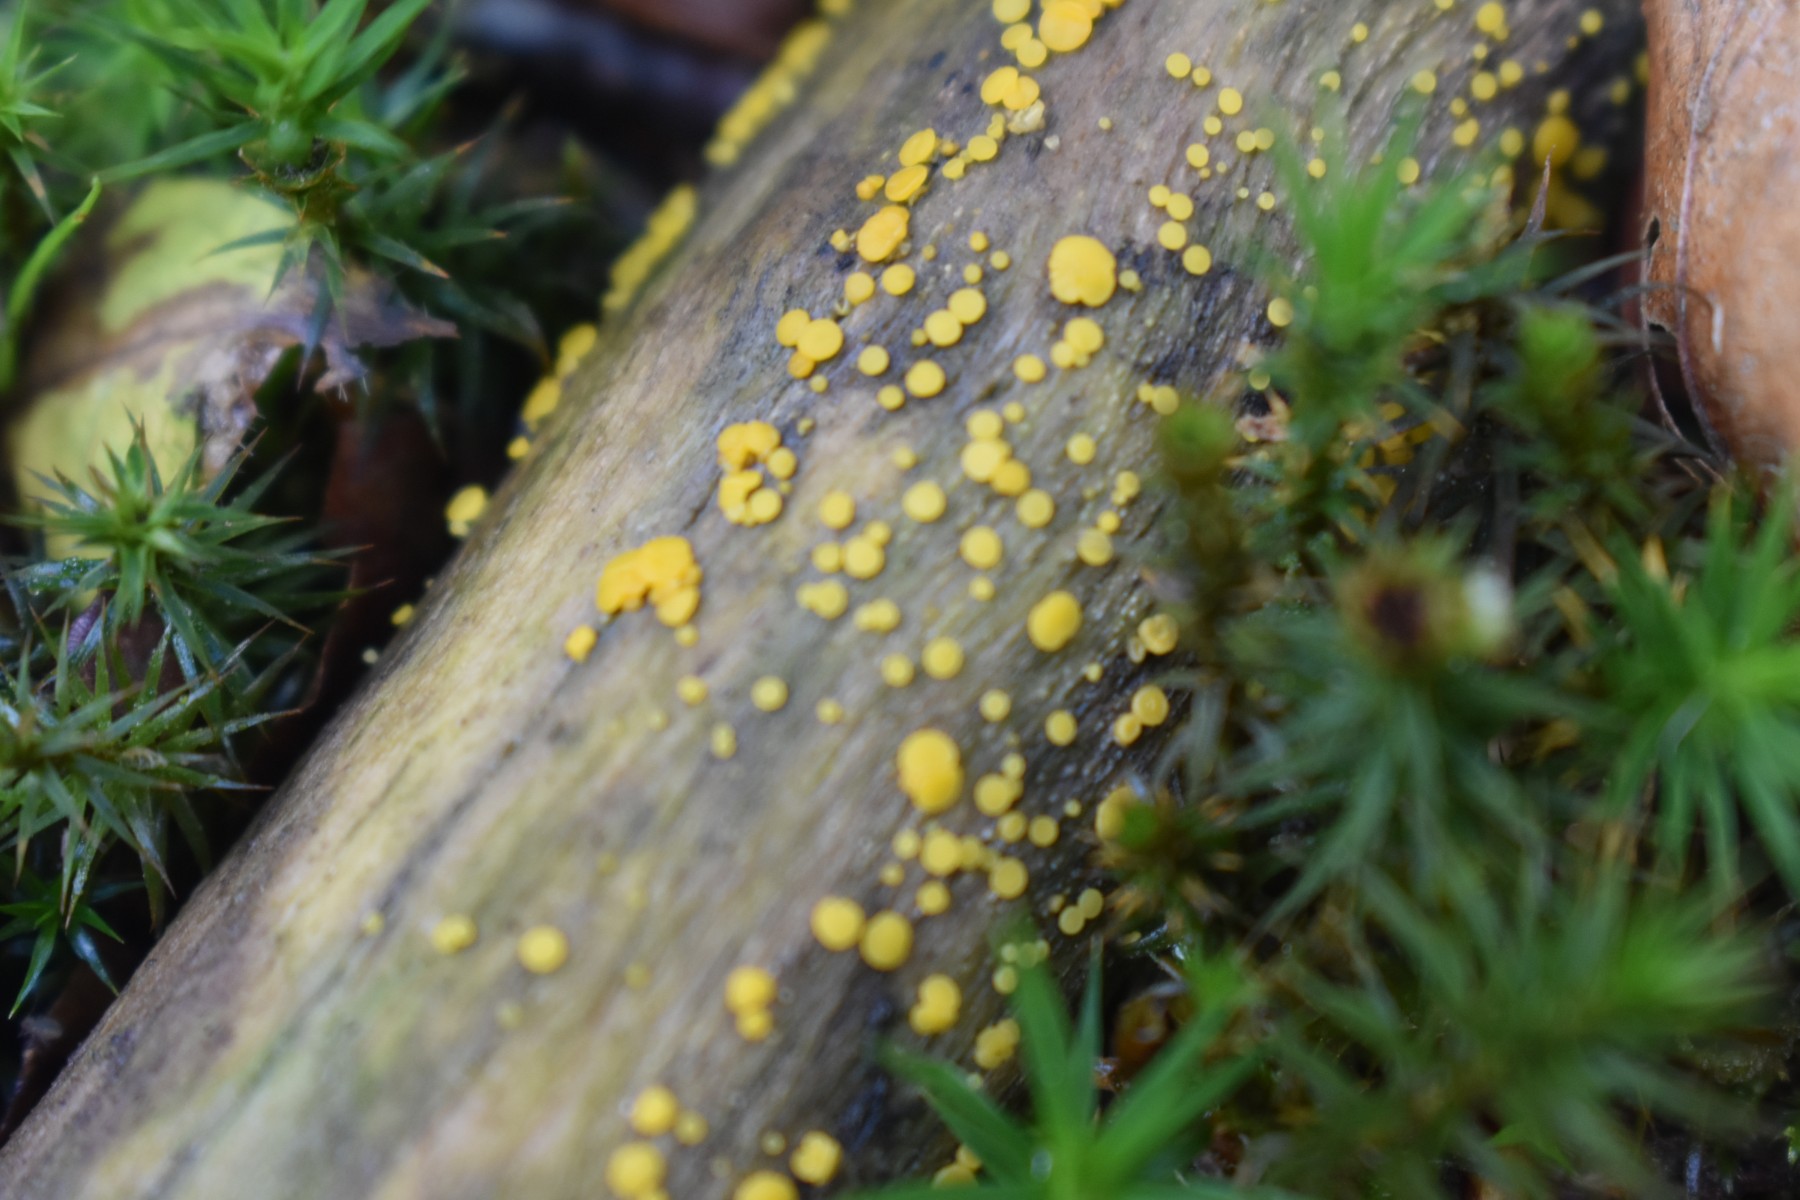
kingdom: Fungi
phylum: Ascomycota
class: Leotiomycetes
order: Helotiales
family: Pezizellaceae
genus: Calycina
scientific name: Calycina citrina
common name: almindelig gulskive
